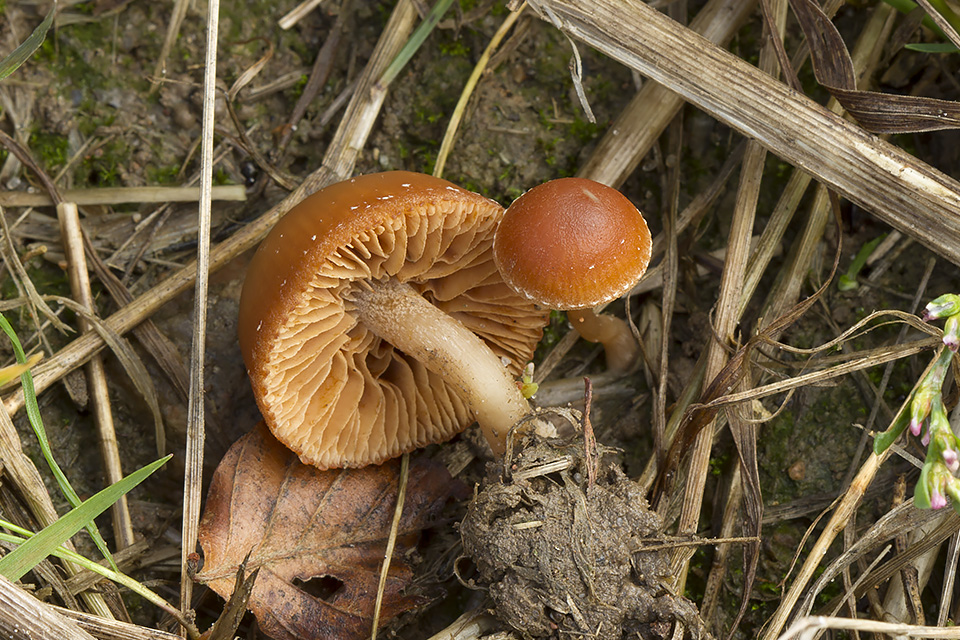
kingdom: Fungi
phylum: Basidiomycota
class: Agaricomycetes
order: Agaricales
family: Tubariaceae
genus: Tubaria
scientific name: Tubaria furfuracea
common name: kliddet fnughat
